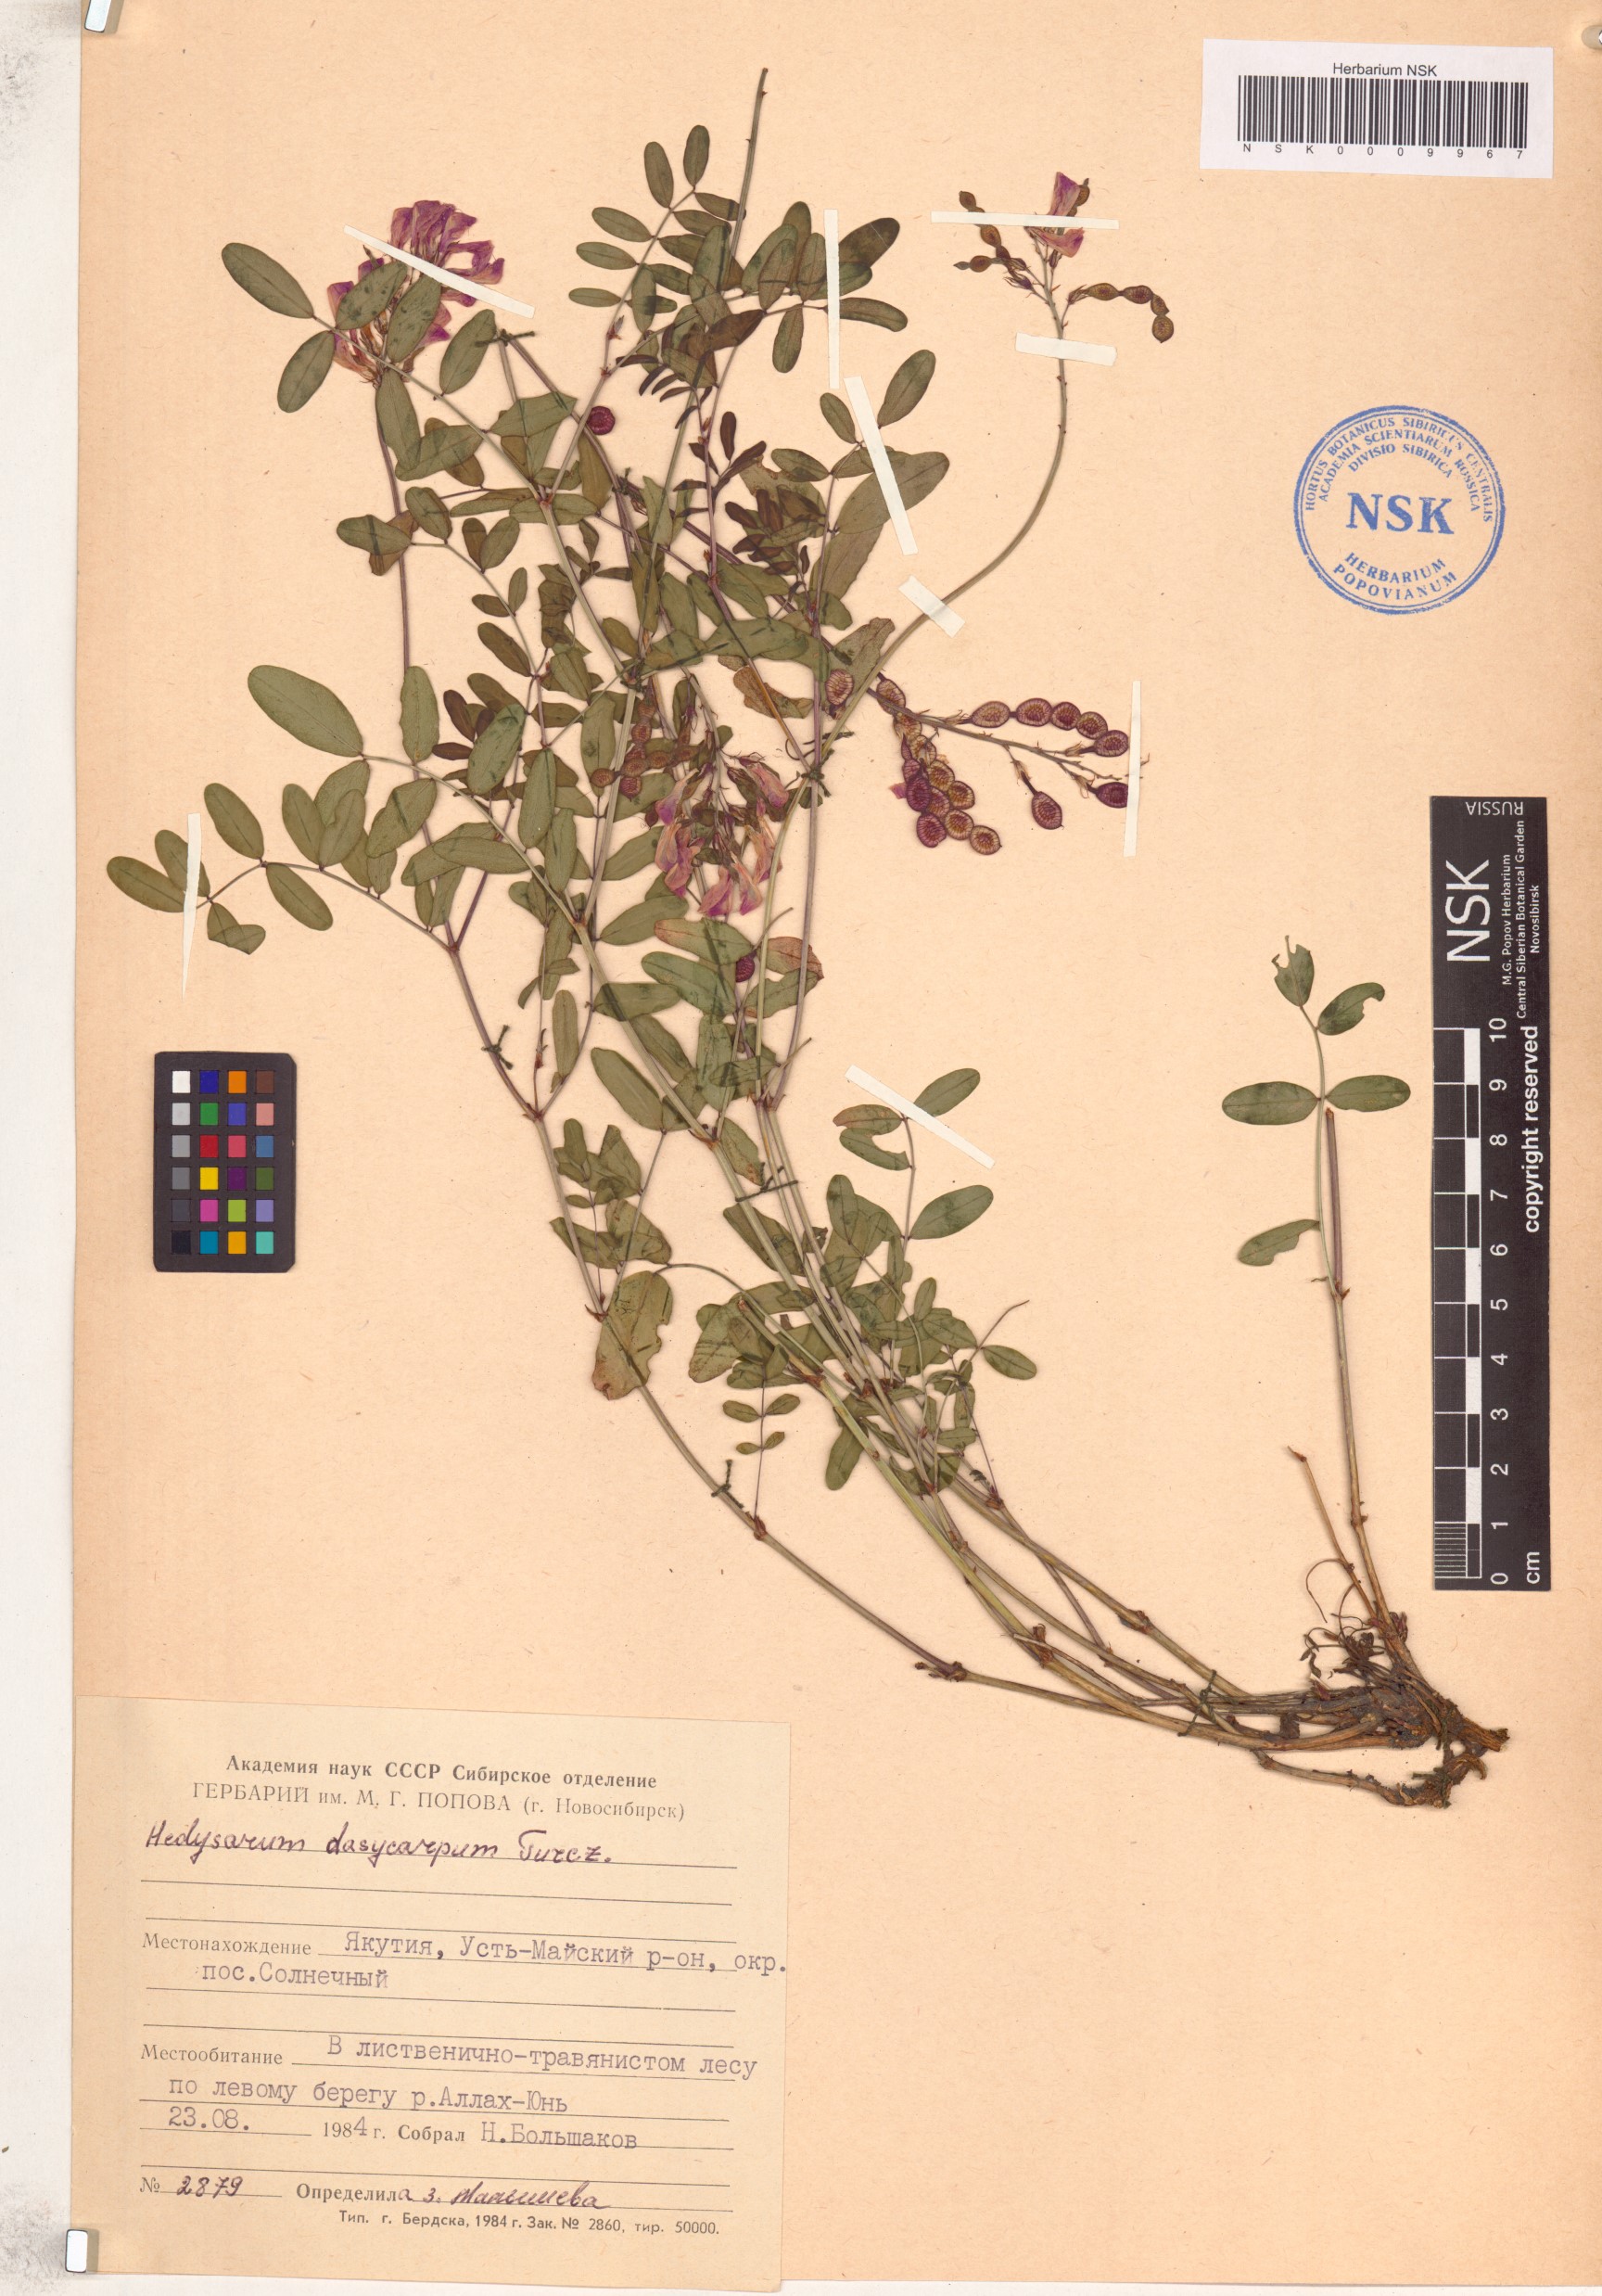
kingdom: Plantae
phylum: Tracheophyta
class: Magnoliopsida
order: Fabales
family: Fabaceae
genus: Hedysarum
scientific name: Hedysarum dasycarpum
